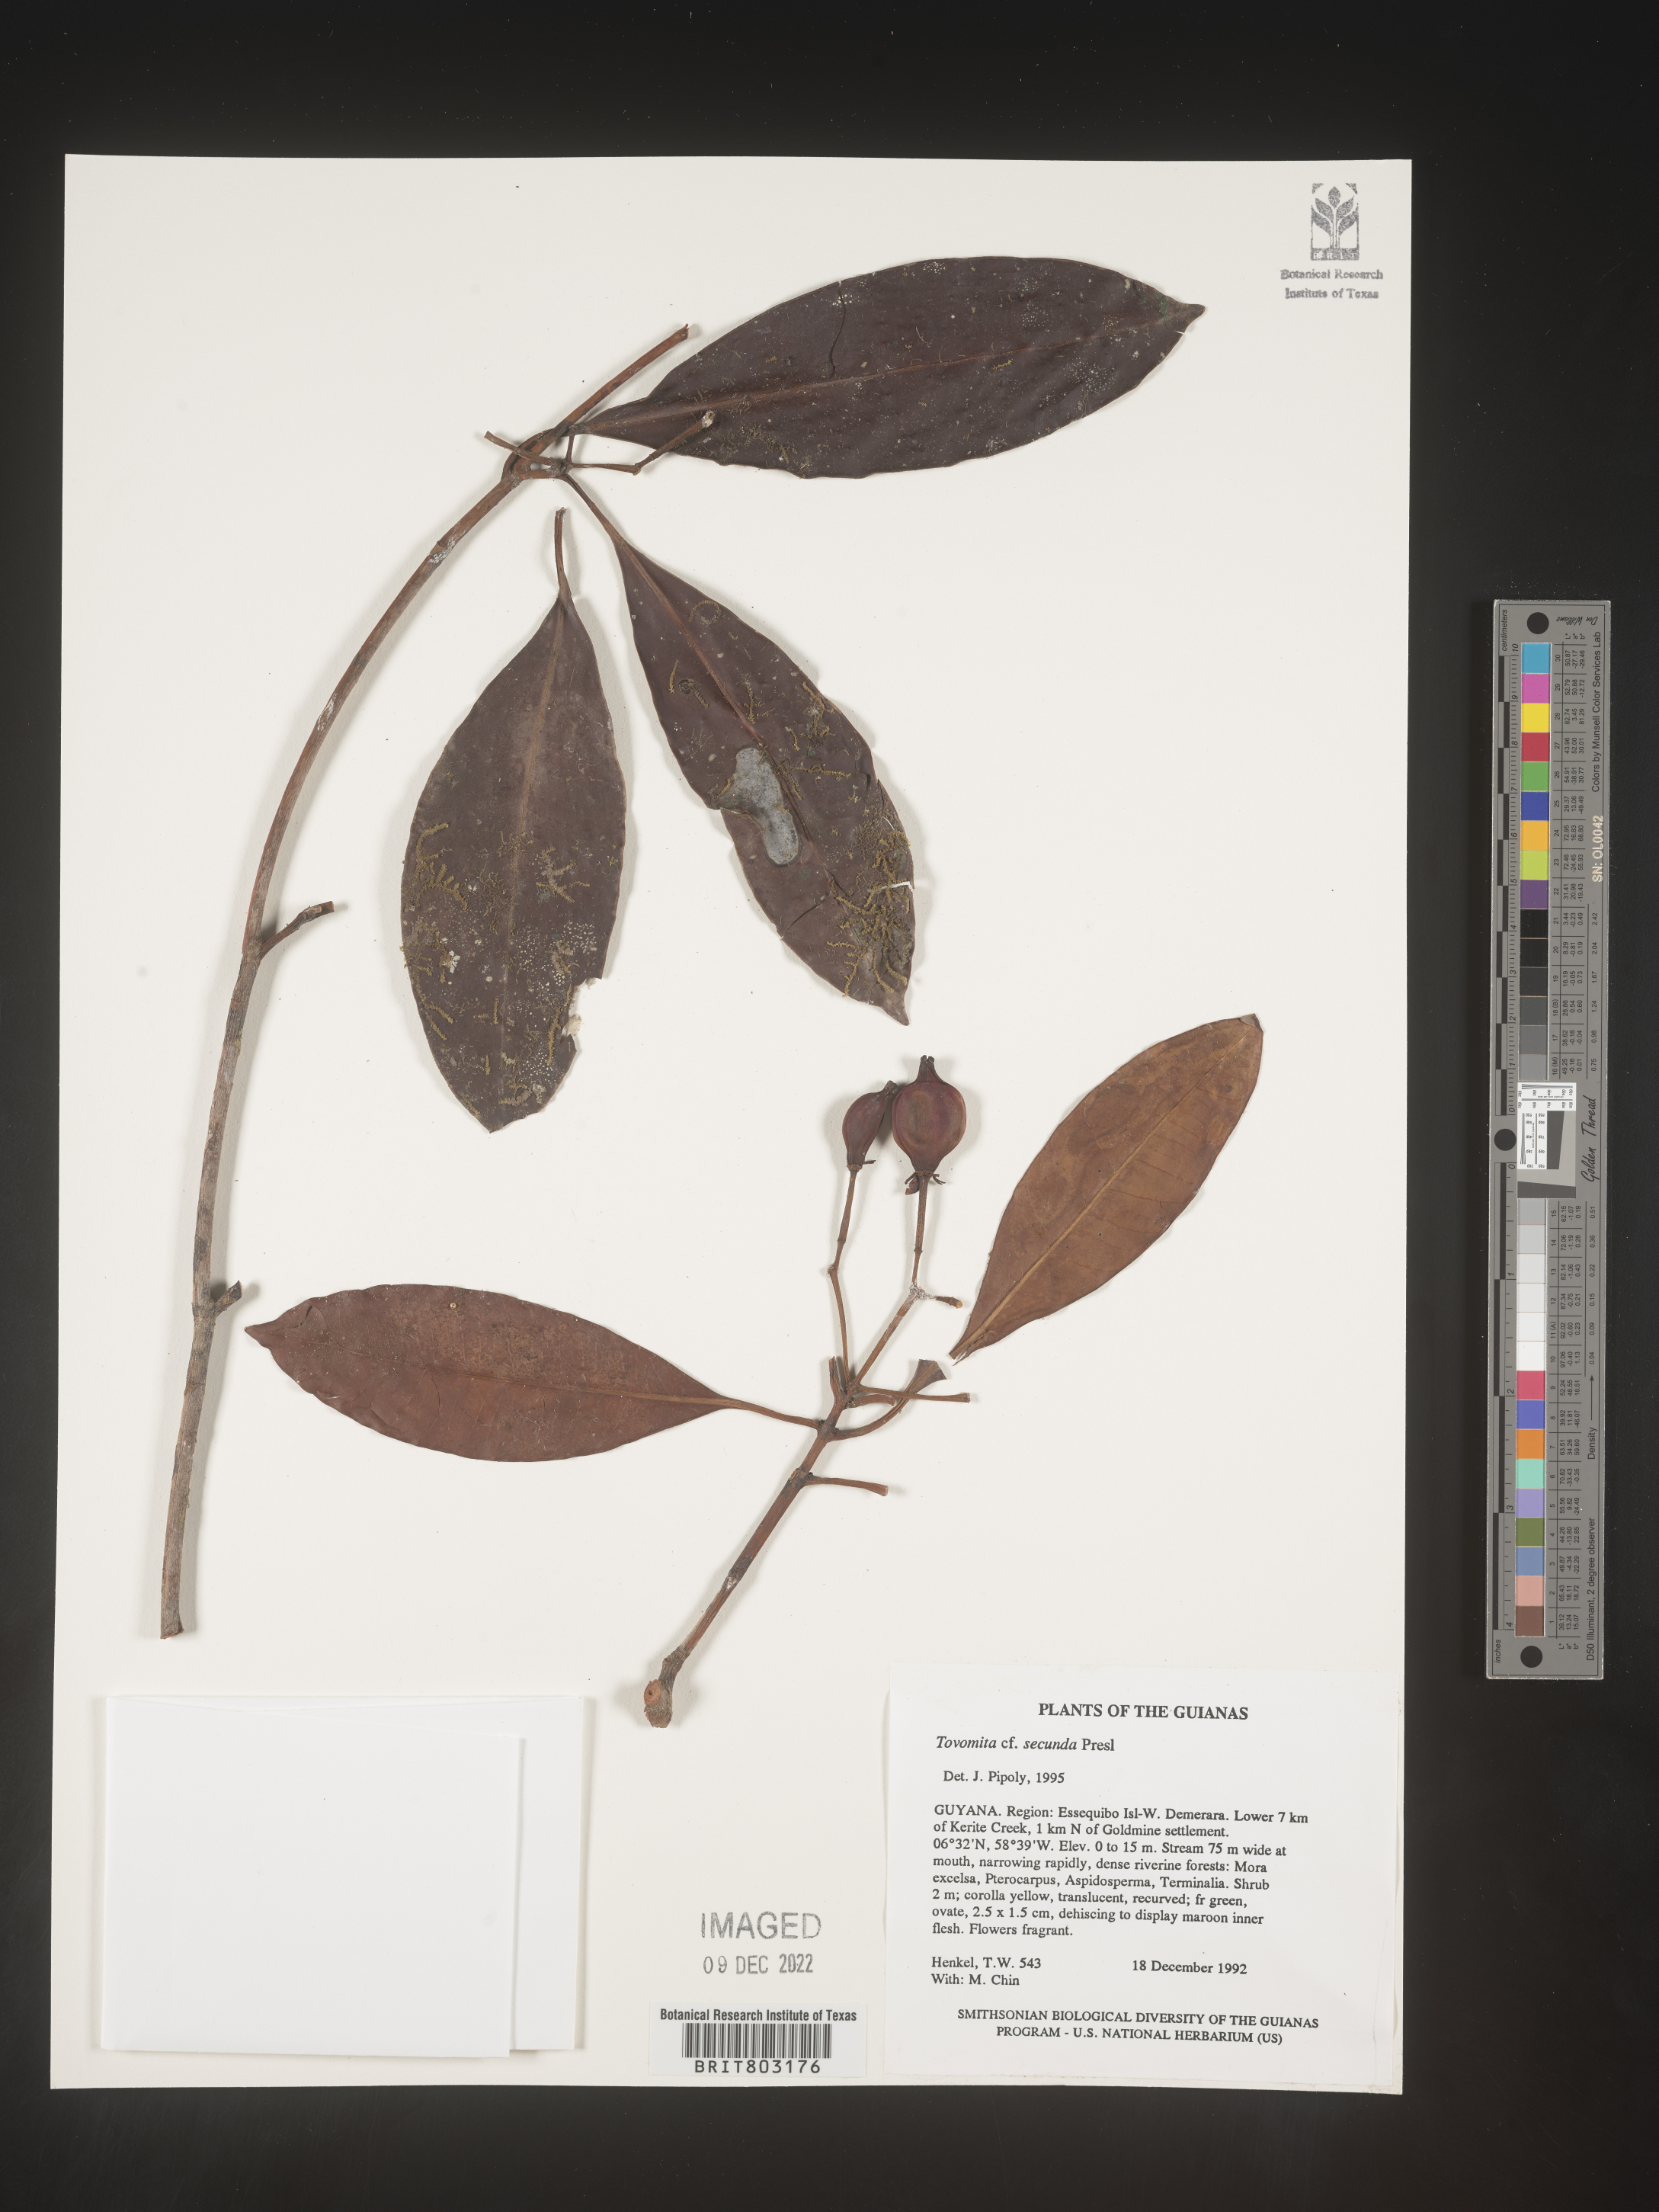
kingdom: Plantae
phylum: Tracheophyta
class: Magnoliopsida
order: Malpighiales
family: Clusiaceae
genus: Tovomita
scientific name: Tovomita
